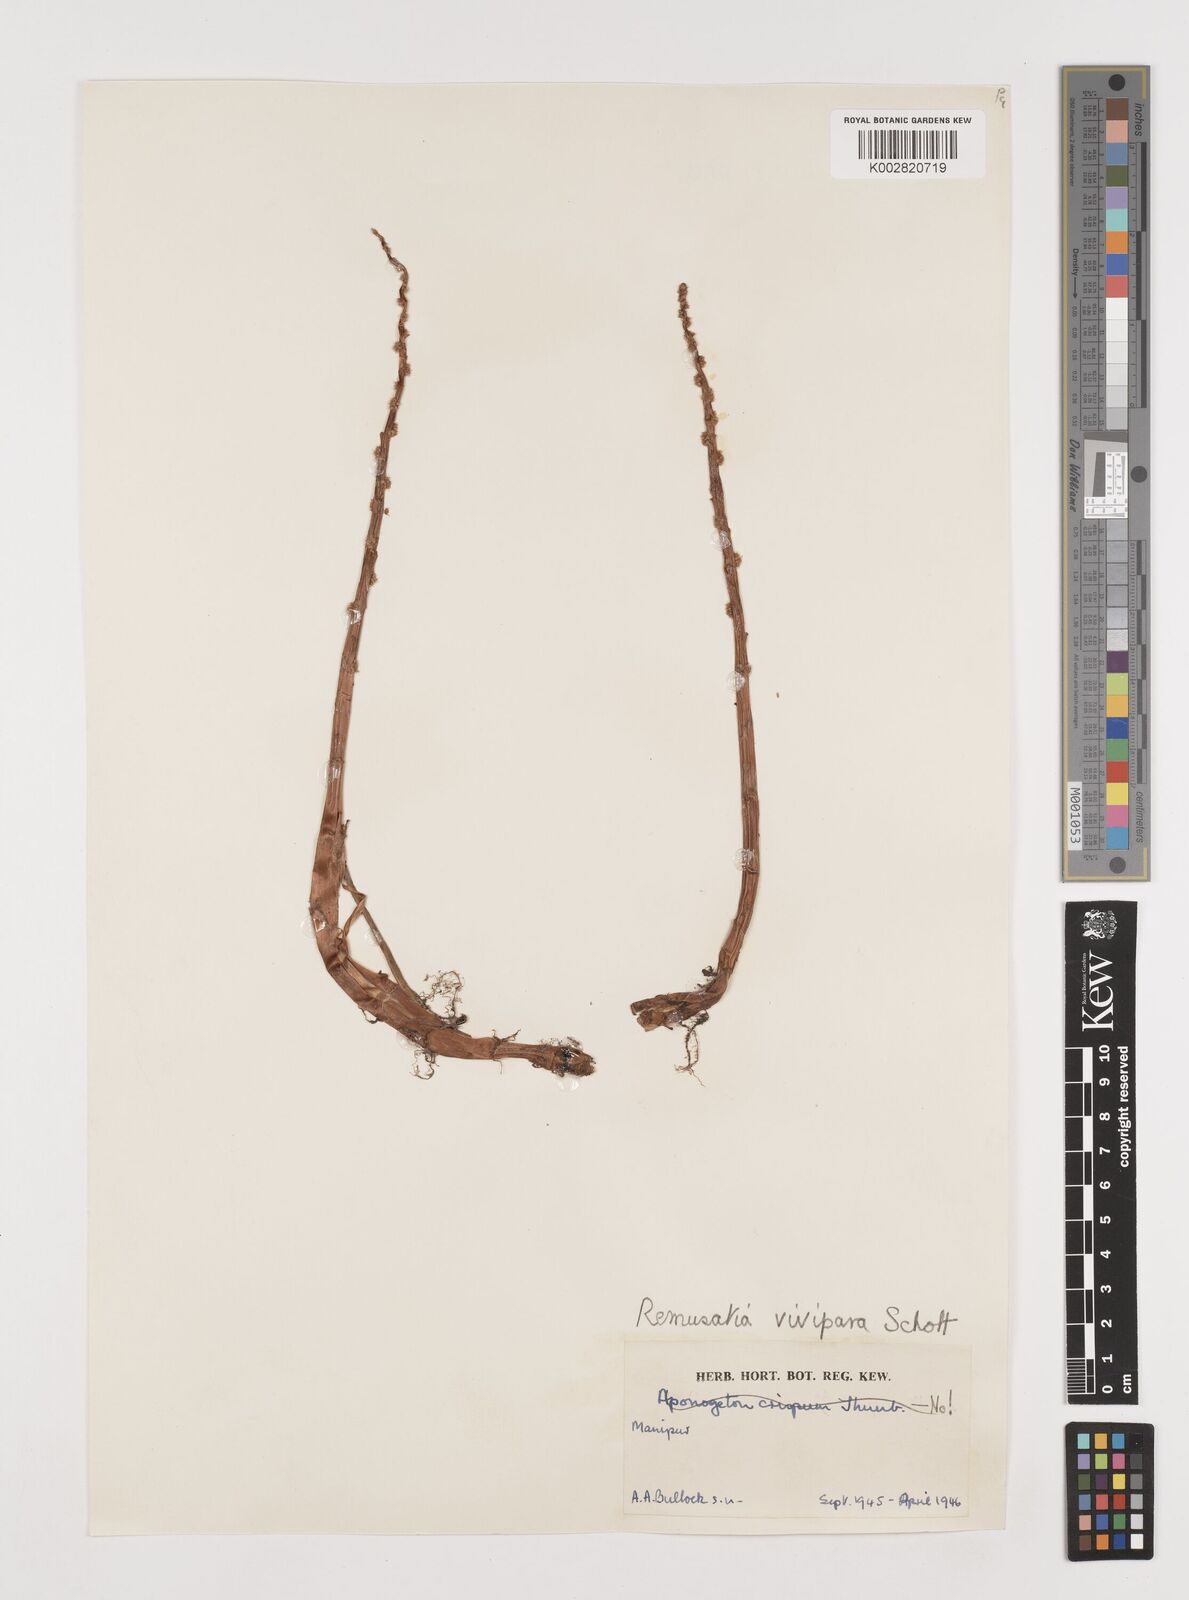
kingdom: Plantae
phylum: Tracheophyta
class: Liliopsida
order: Alismatales
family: Araceae
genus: Remusatia
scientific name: Remusatia vivipara
